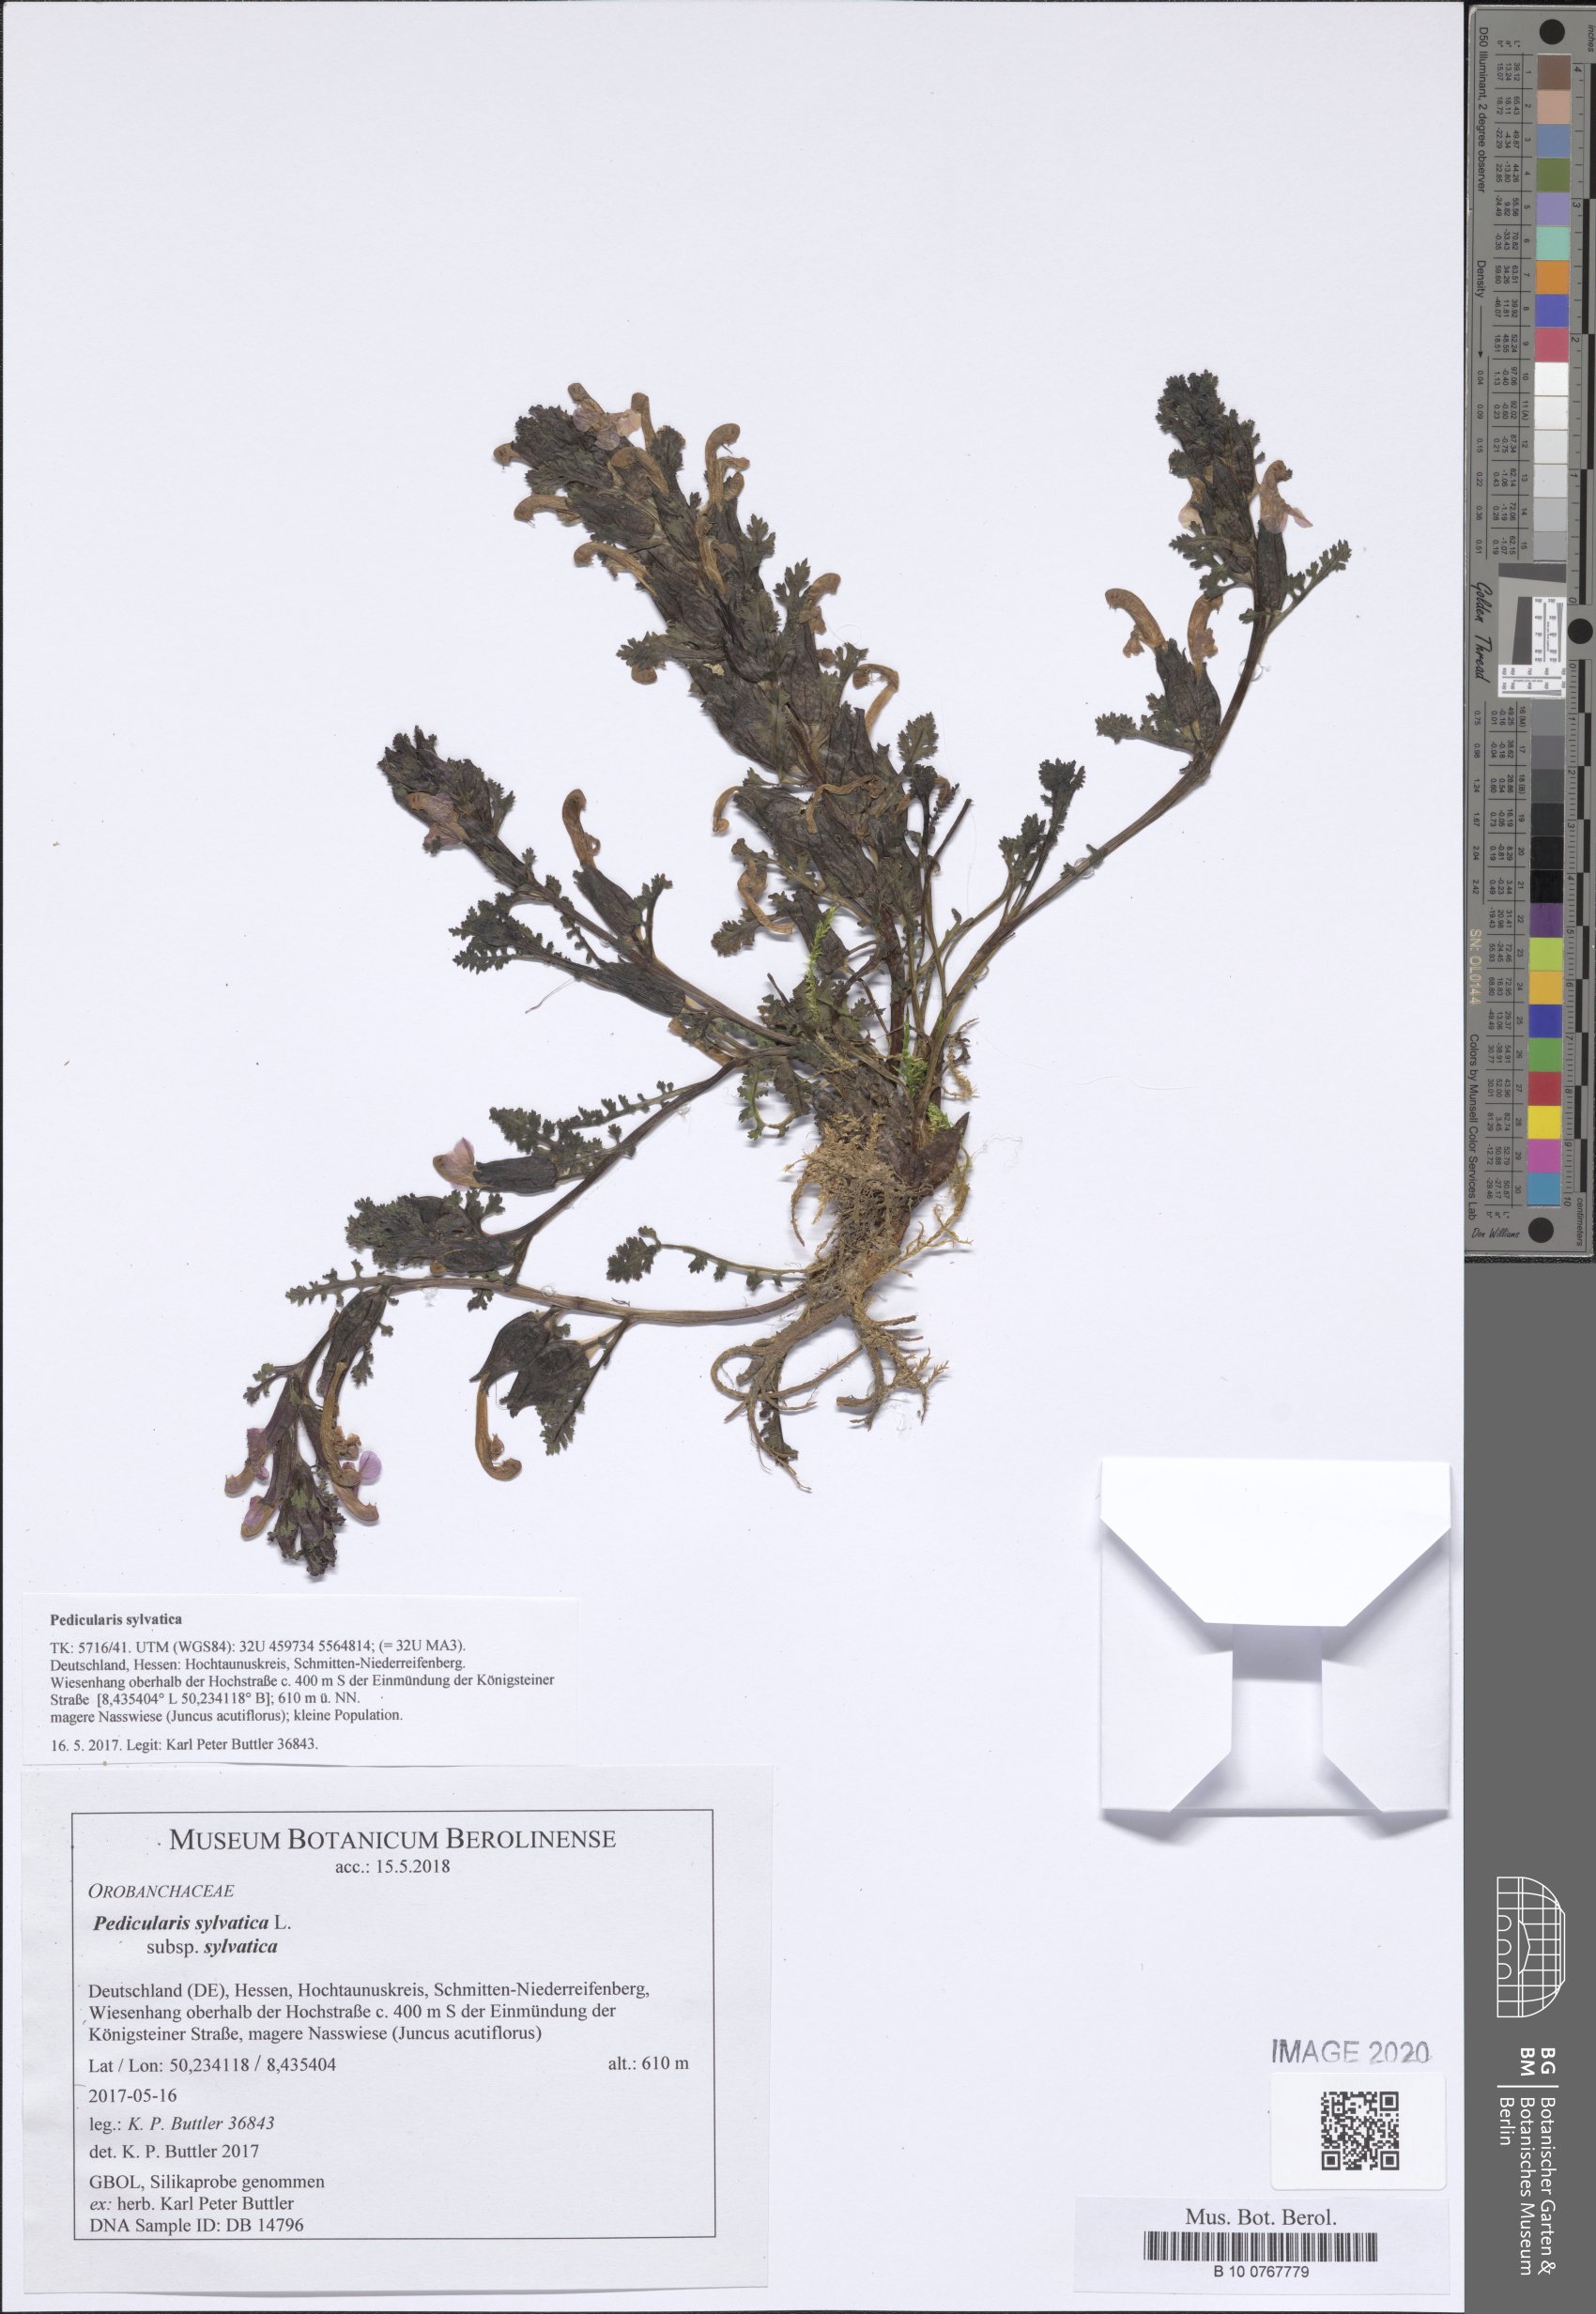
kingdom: Plantae
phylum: Tracheophyta
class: Magnoliopsida
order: Lamiales
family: Orobanchaceae
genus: Pedicularis
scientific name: Pedicularis sylvatica
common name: Lousewort
